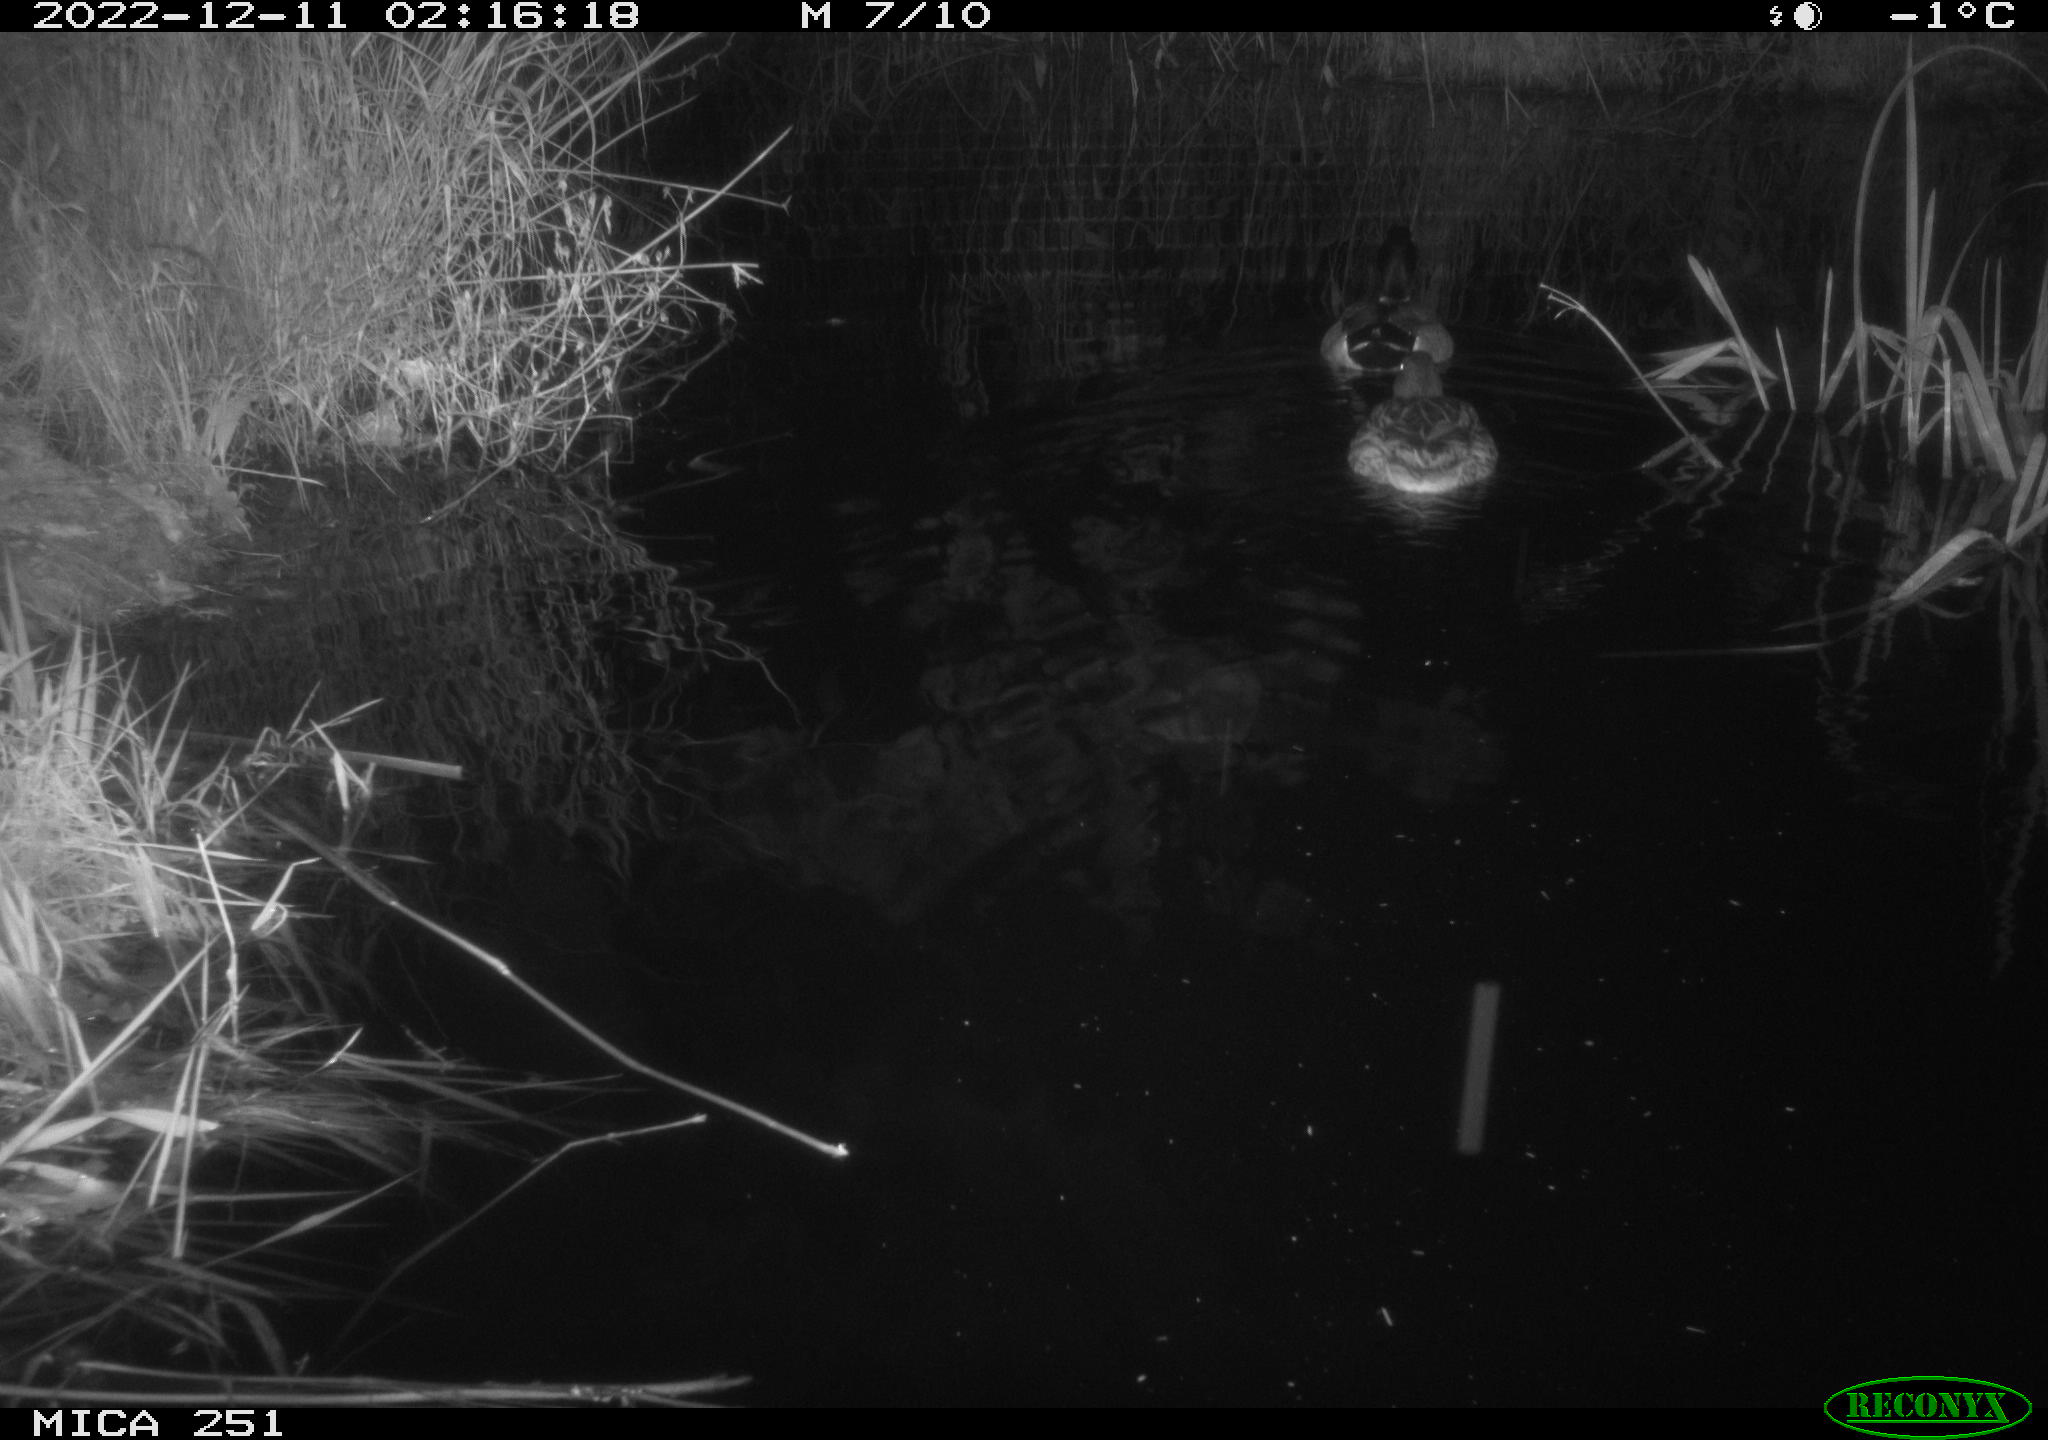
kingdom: Animalia
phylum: Chordata
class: Aves
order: Anseriformes
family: Anatidae
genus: Anas
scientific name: Anas
